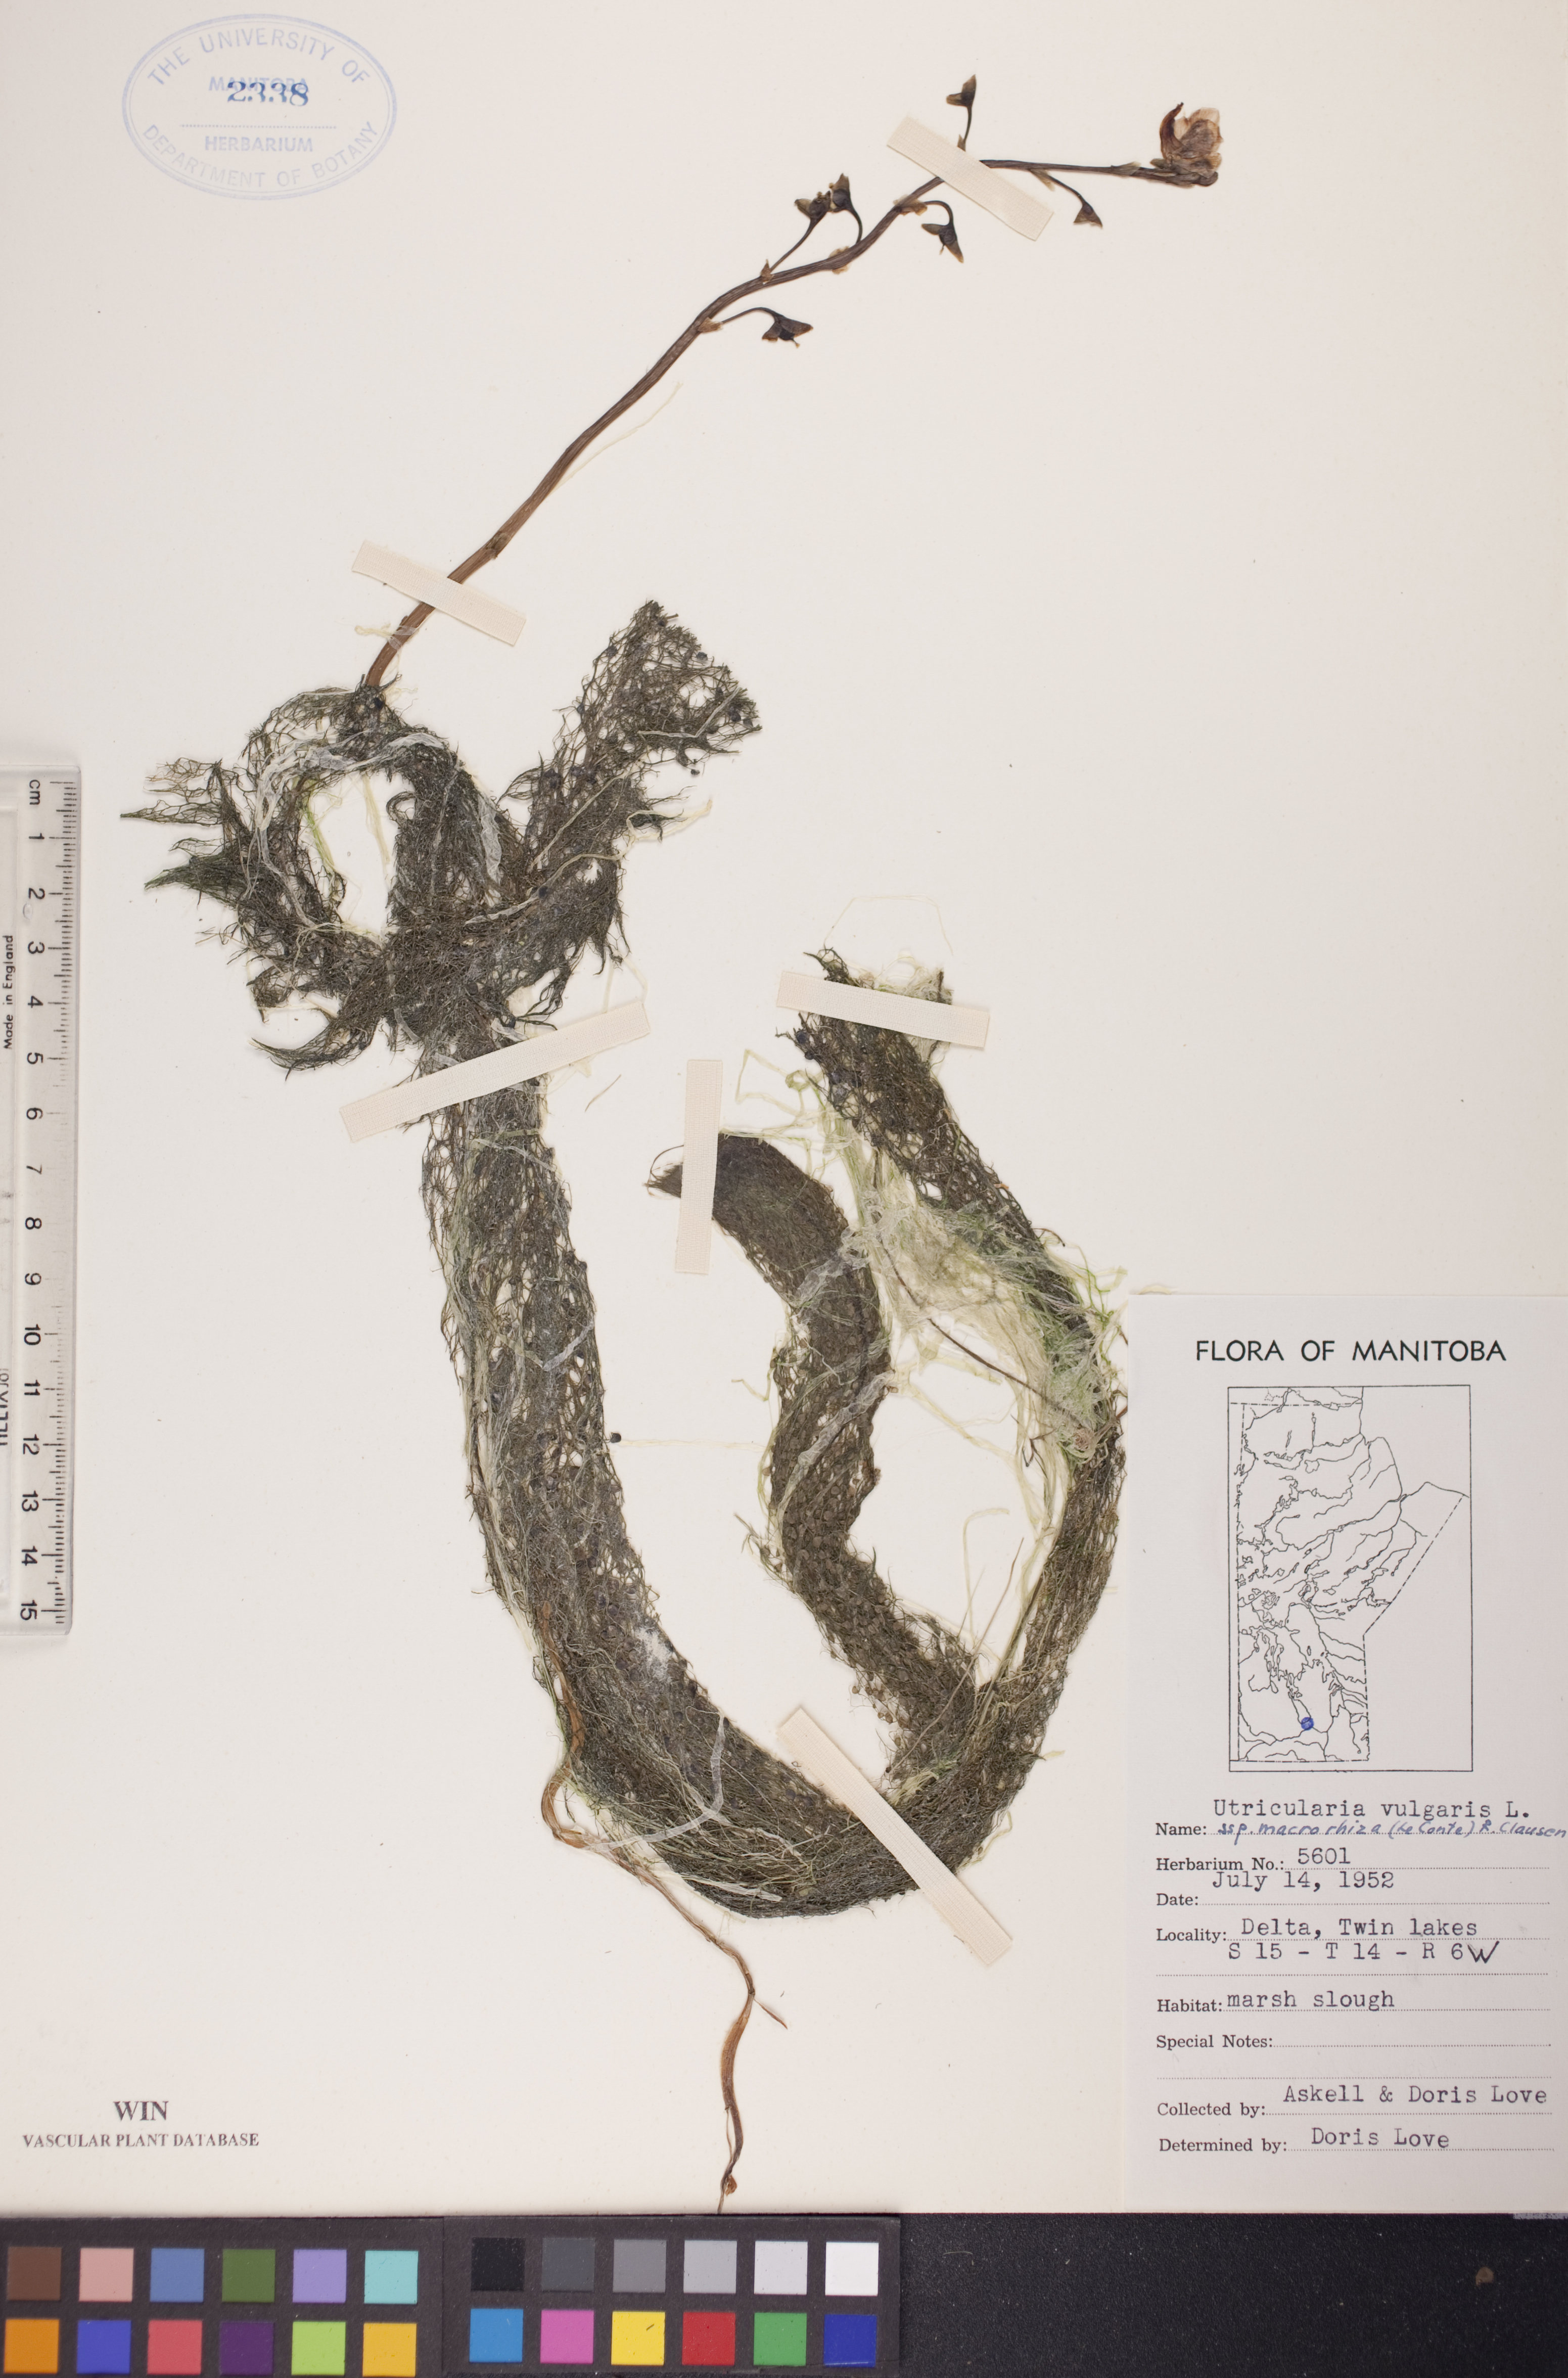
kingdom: Plantae
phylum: Tracheophyta
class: Magnoliopsida
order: Lamiales
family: Lentibulariaceae
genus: Utricularia
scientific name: Utricularia macrorhiza
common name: Common bladderwort
